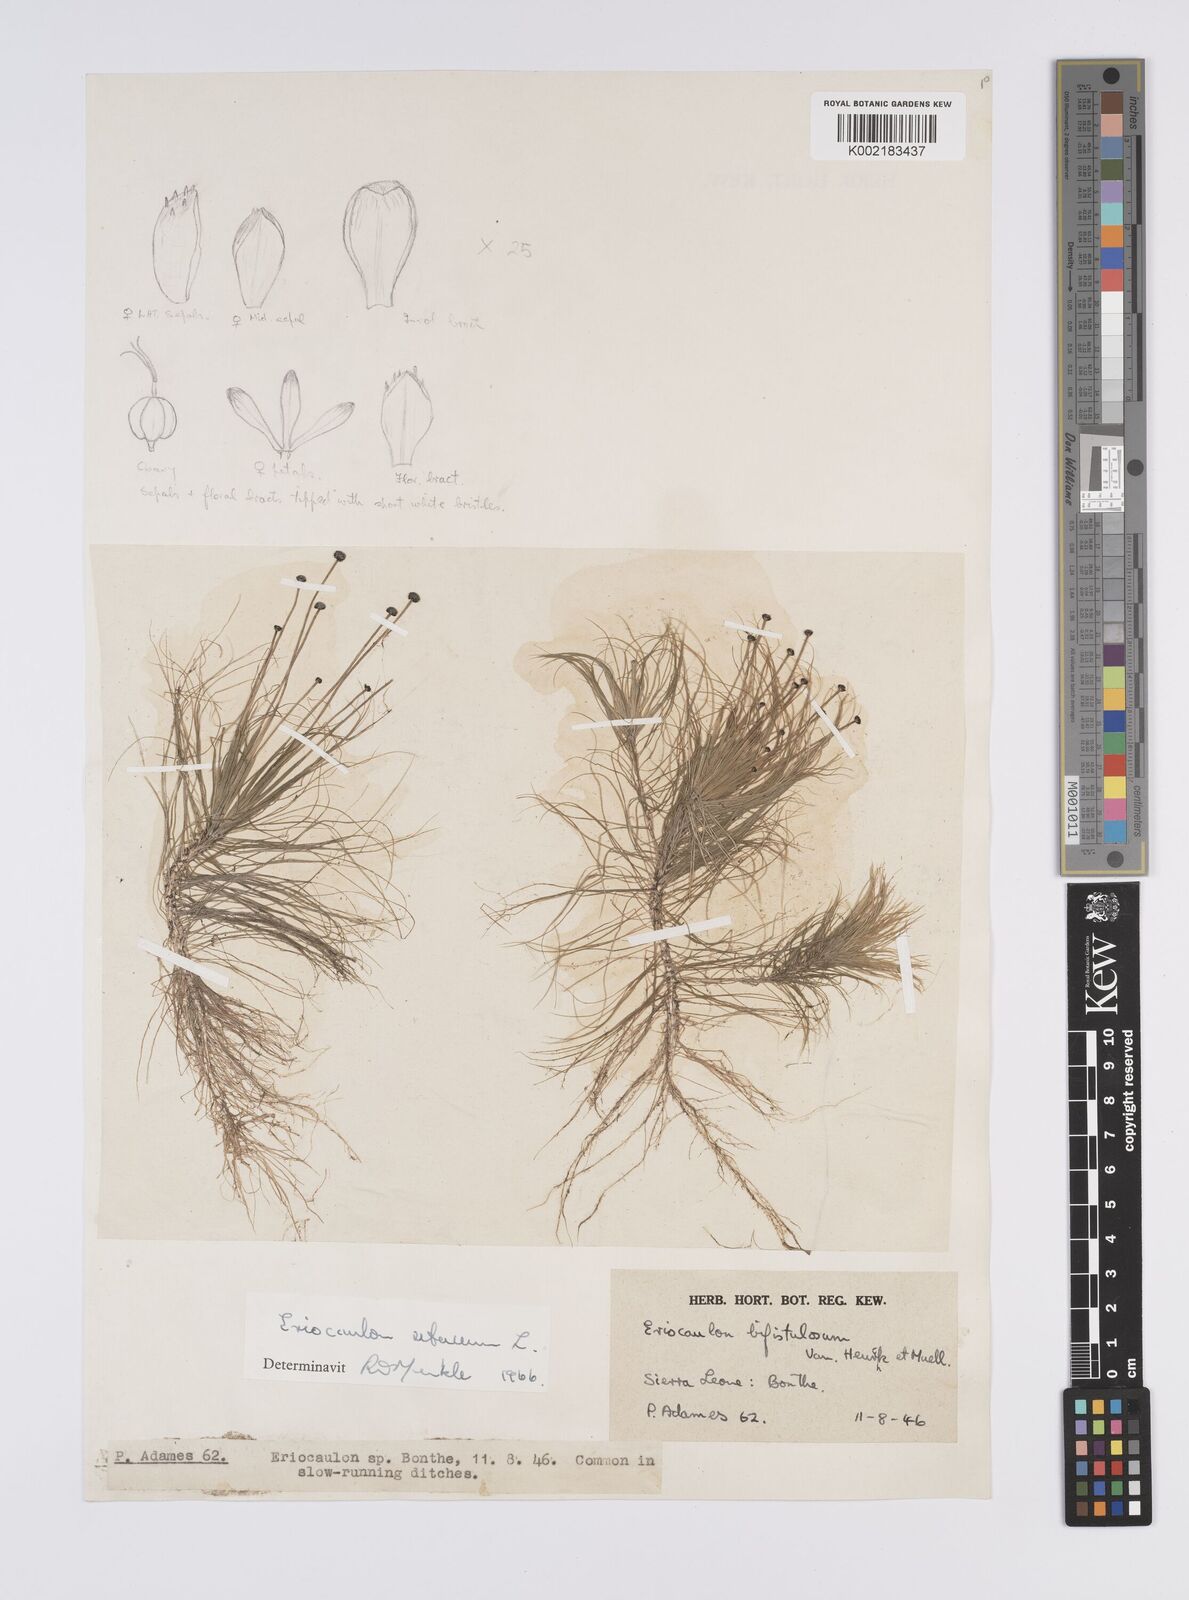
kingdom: Plantae
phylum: Tracheophyta
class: Liliopsida
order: Poales
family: Eriocaulaceae
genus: Eriocaulon
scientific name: Eriocaulon setaceum
